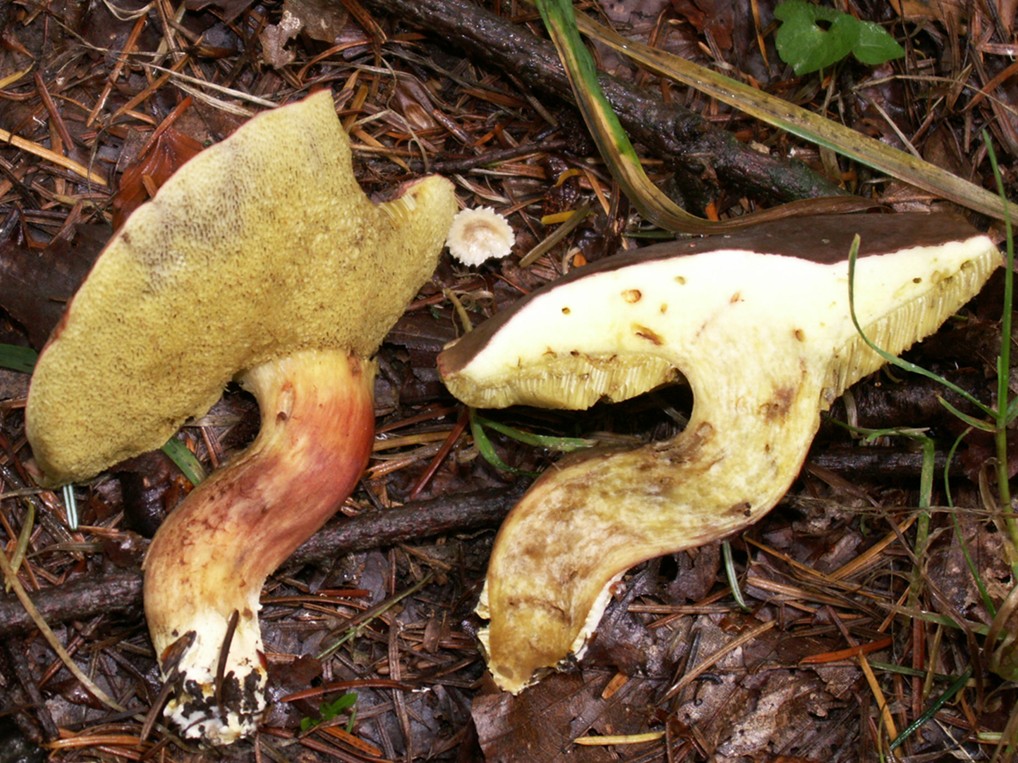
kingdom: Fungi
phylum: Basidiomycota
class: Agaricomycetes
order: Boletales
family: Boletaceae
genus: Xerocomellus
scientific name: Xerocomellus chrysenteron
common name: rødsprukken rørhat
